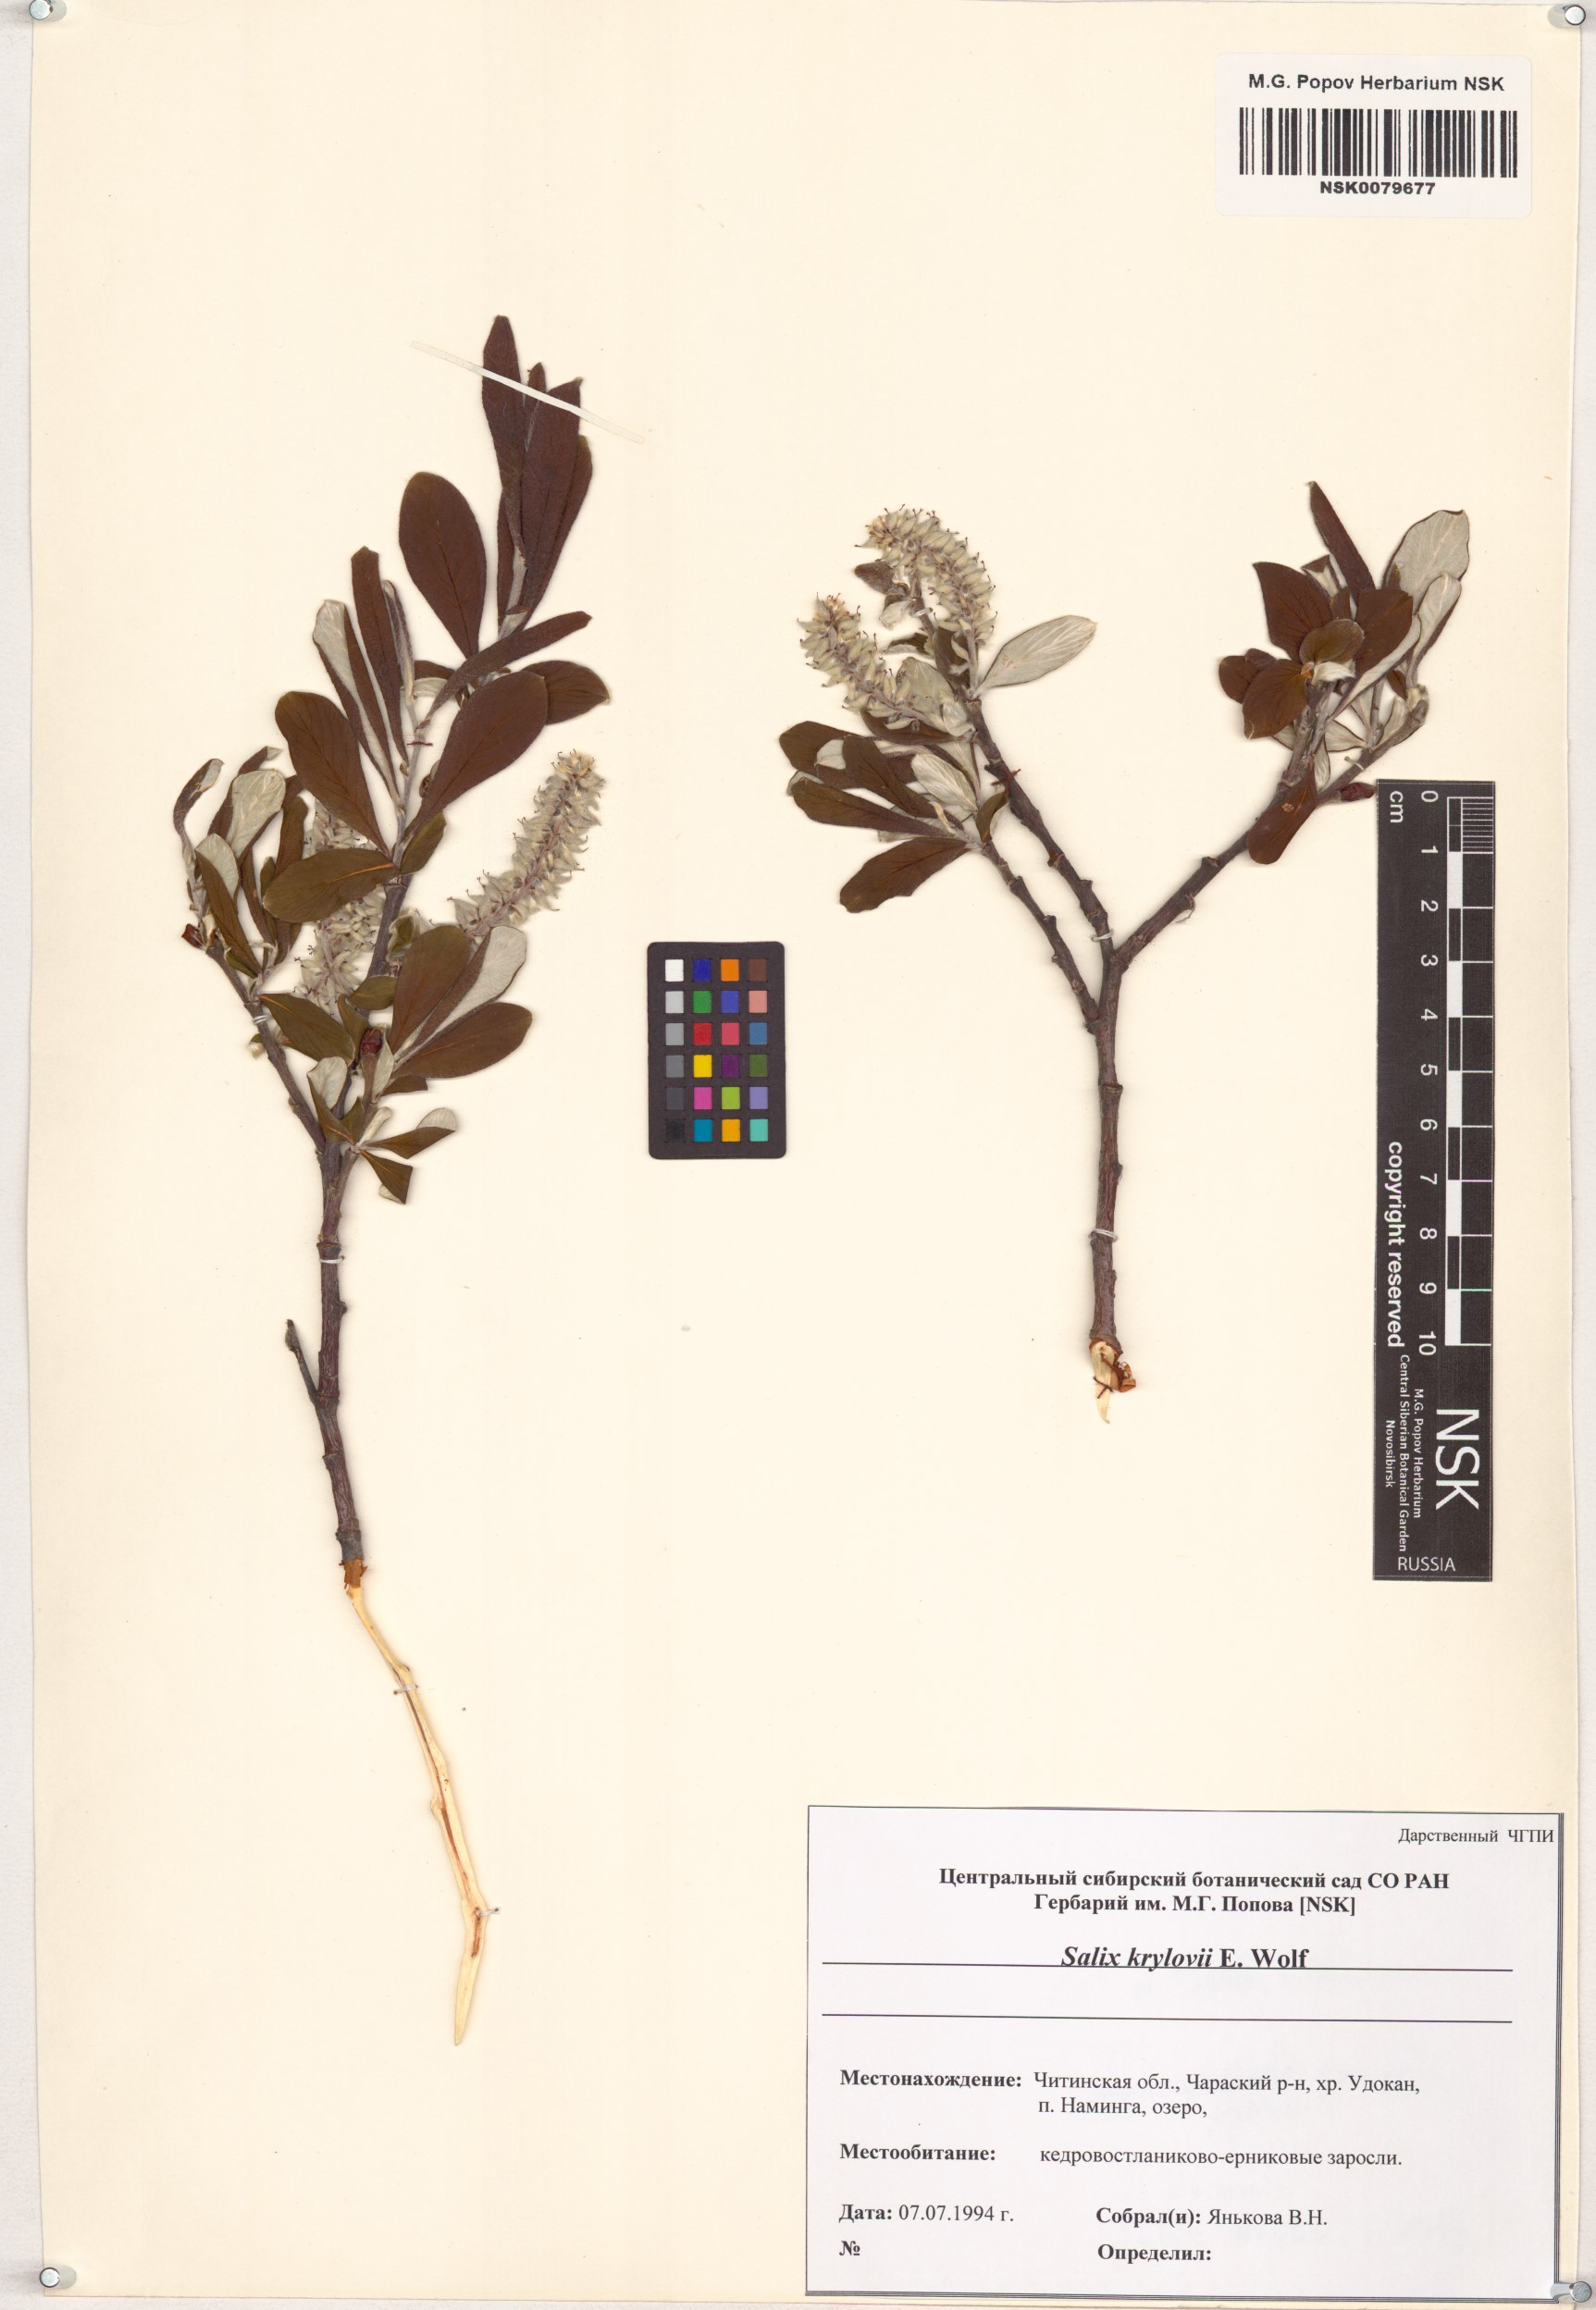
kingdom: Plantae
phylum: Tracheophyta
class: Magnoliopsida
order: Malpighiales
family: Salicaceae
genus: Salix
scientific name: Salix krylovii
